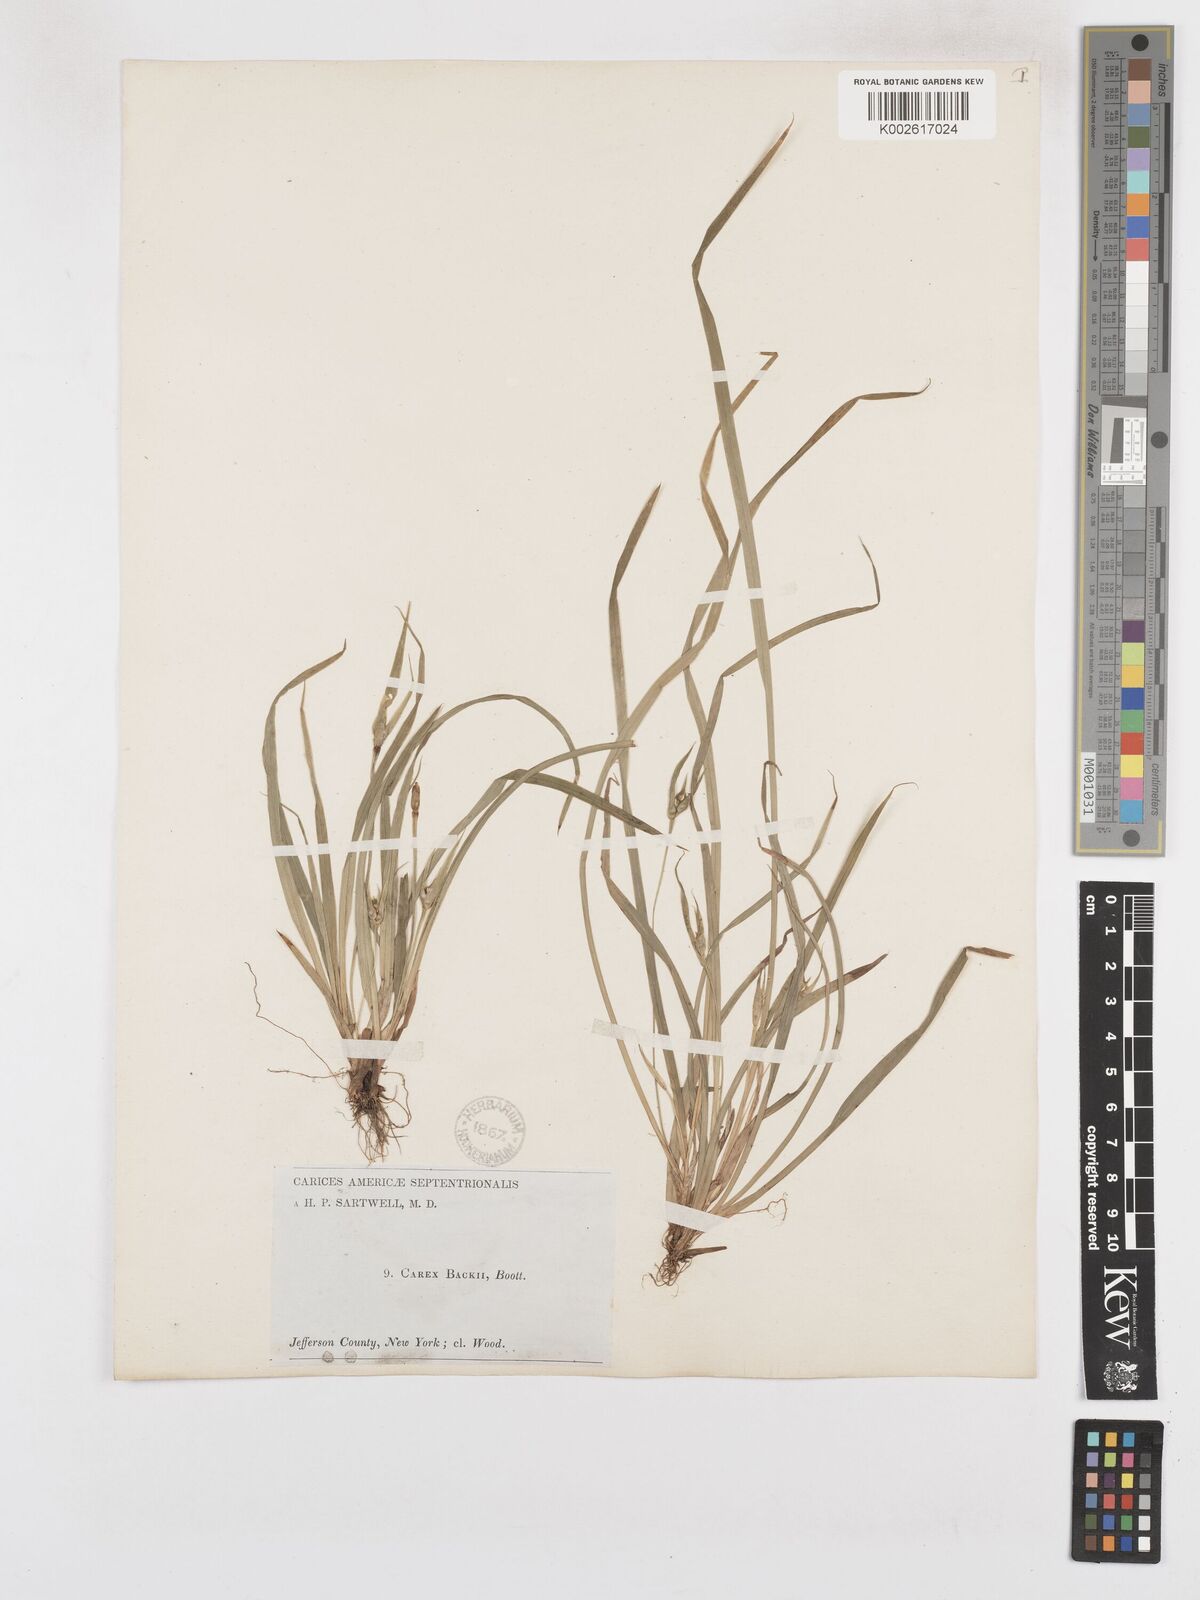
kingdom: Plantae
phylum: Tracheophyta
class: Liliopsida
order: Poales
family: Cyperaceae
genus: Carex
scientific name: Carex backii
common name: Back's sedge
